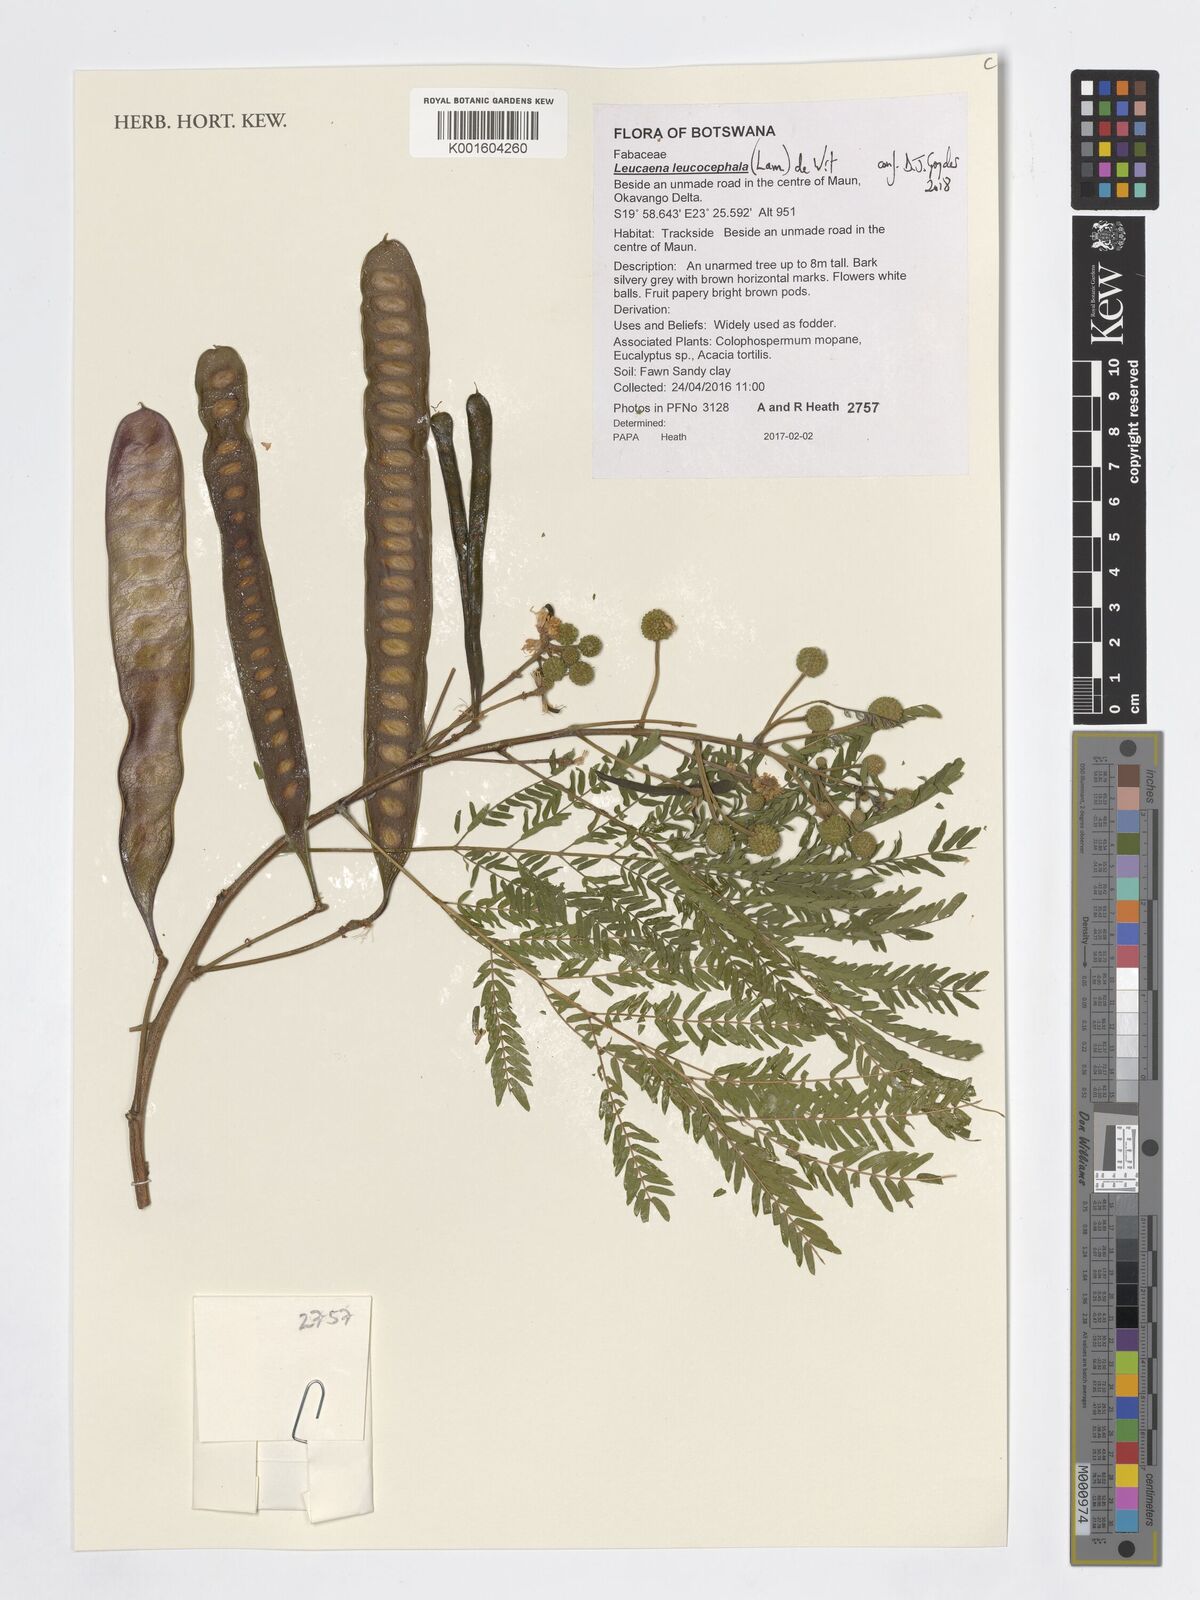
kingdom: Plantae
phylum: Tracheophyta
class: Magnoliopsida
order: Fabales
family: Fabaceae
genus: Leucaena
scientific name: Leucaena leucocephala
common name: White leadtree
